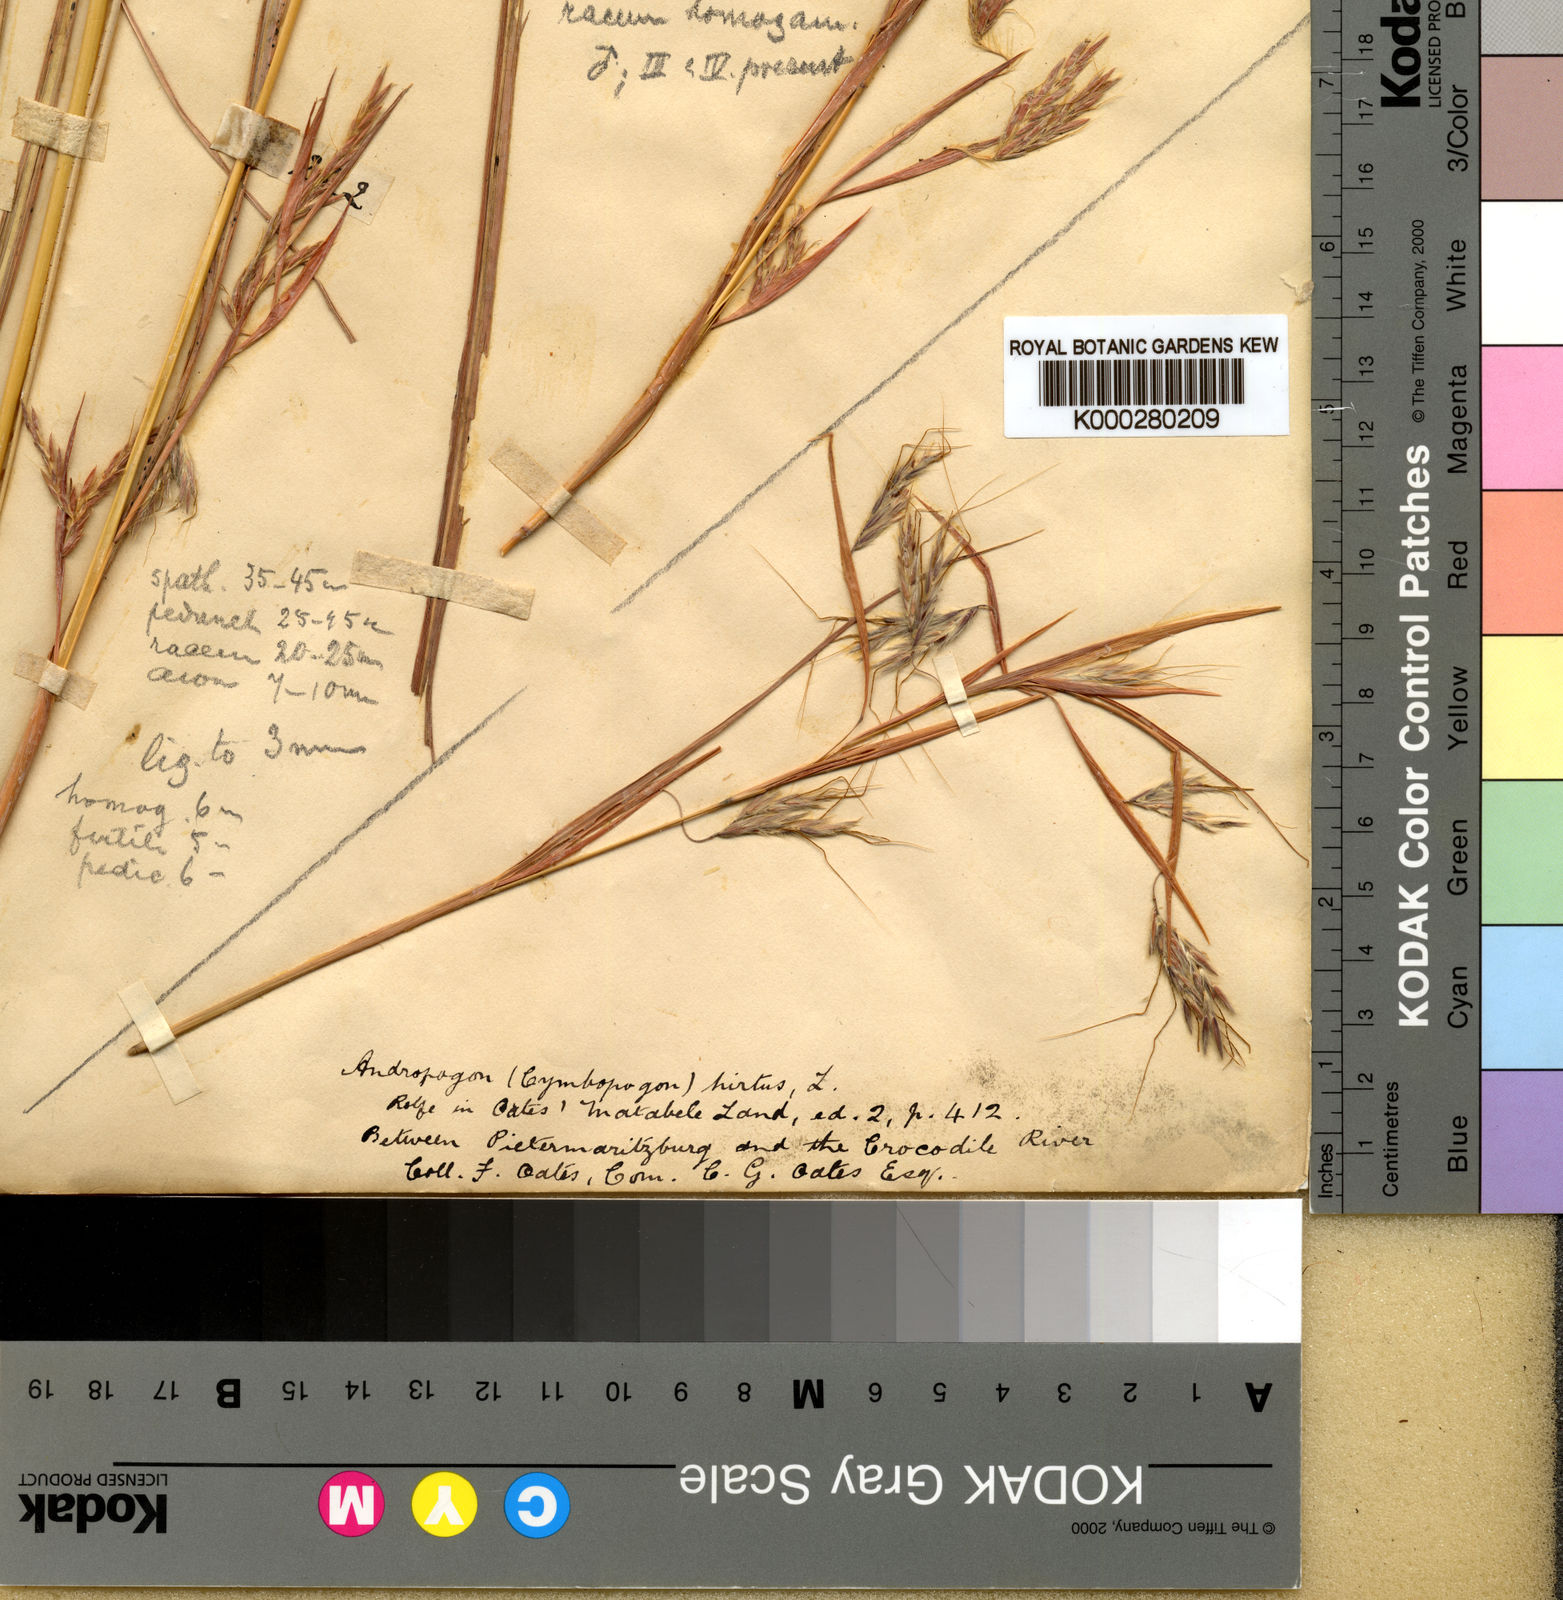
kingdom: Plantae
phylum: Tracheophyta
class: Liliopsida
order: Poales
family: Poaceae
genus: Hyparrhenia
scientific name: Hyparrhenia dregeana
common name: Silky thatching grass
